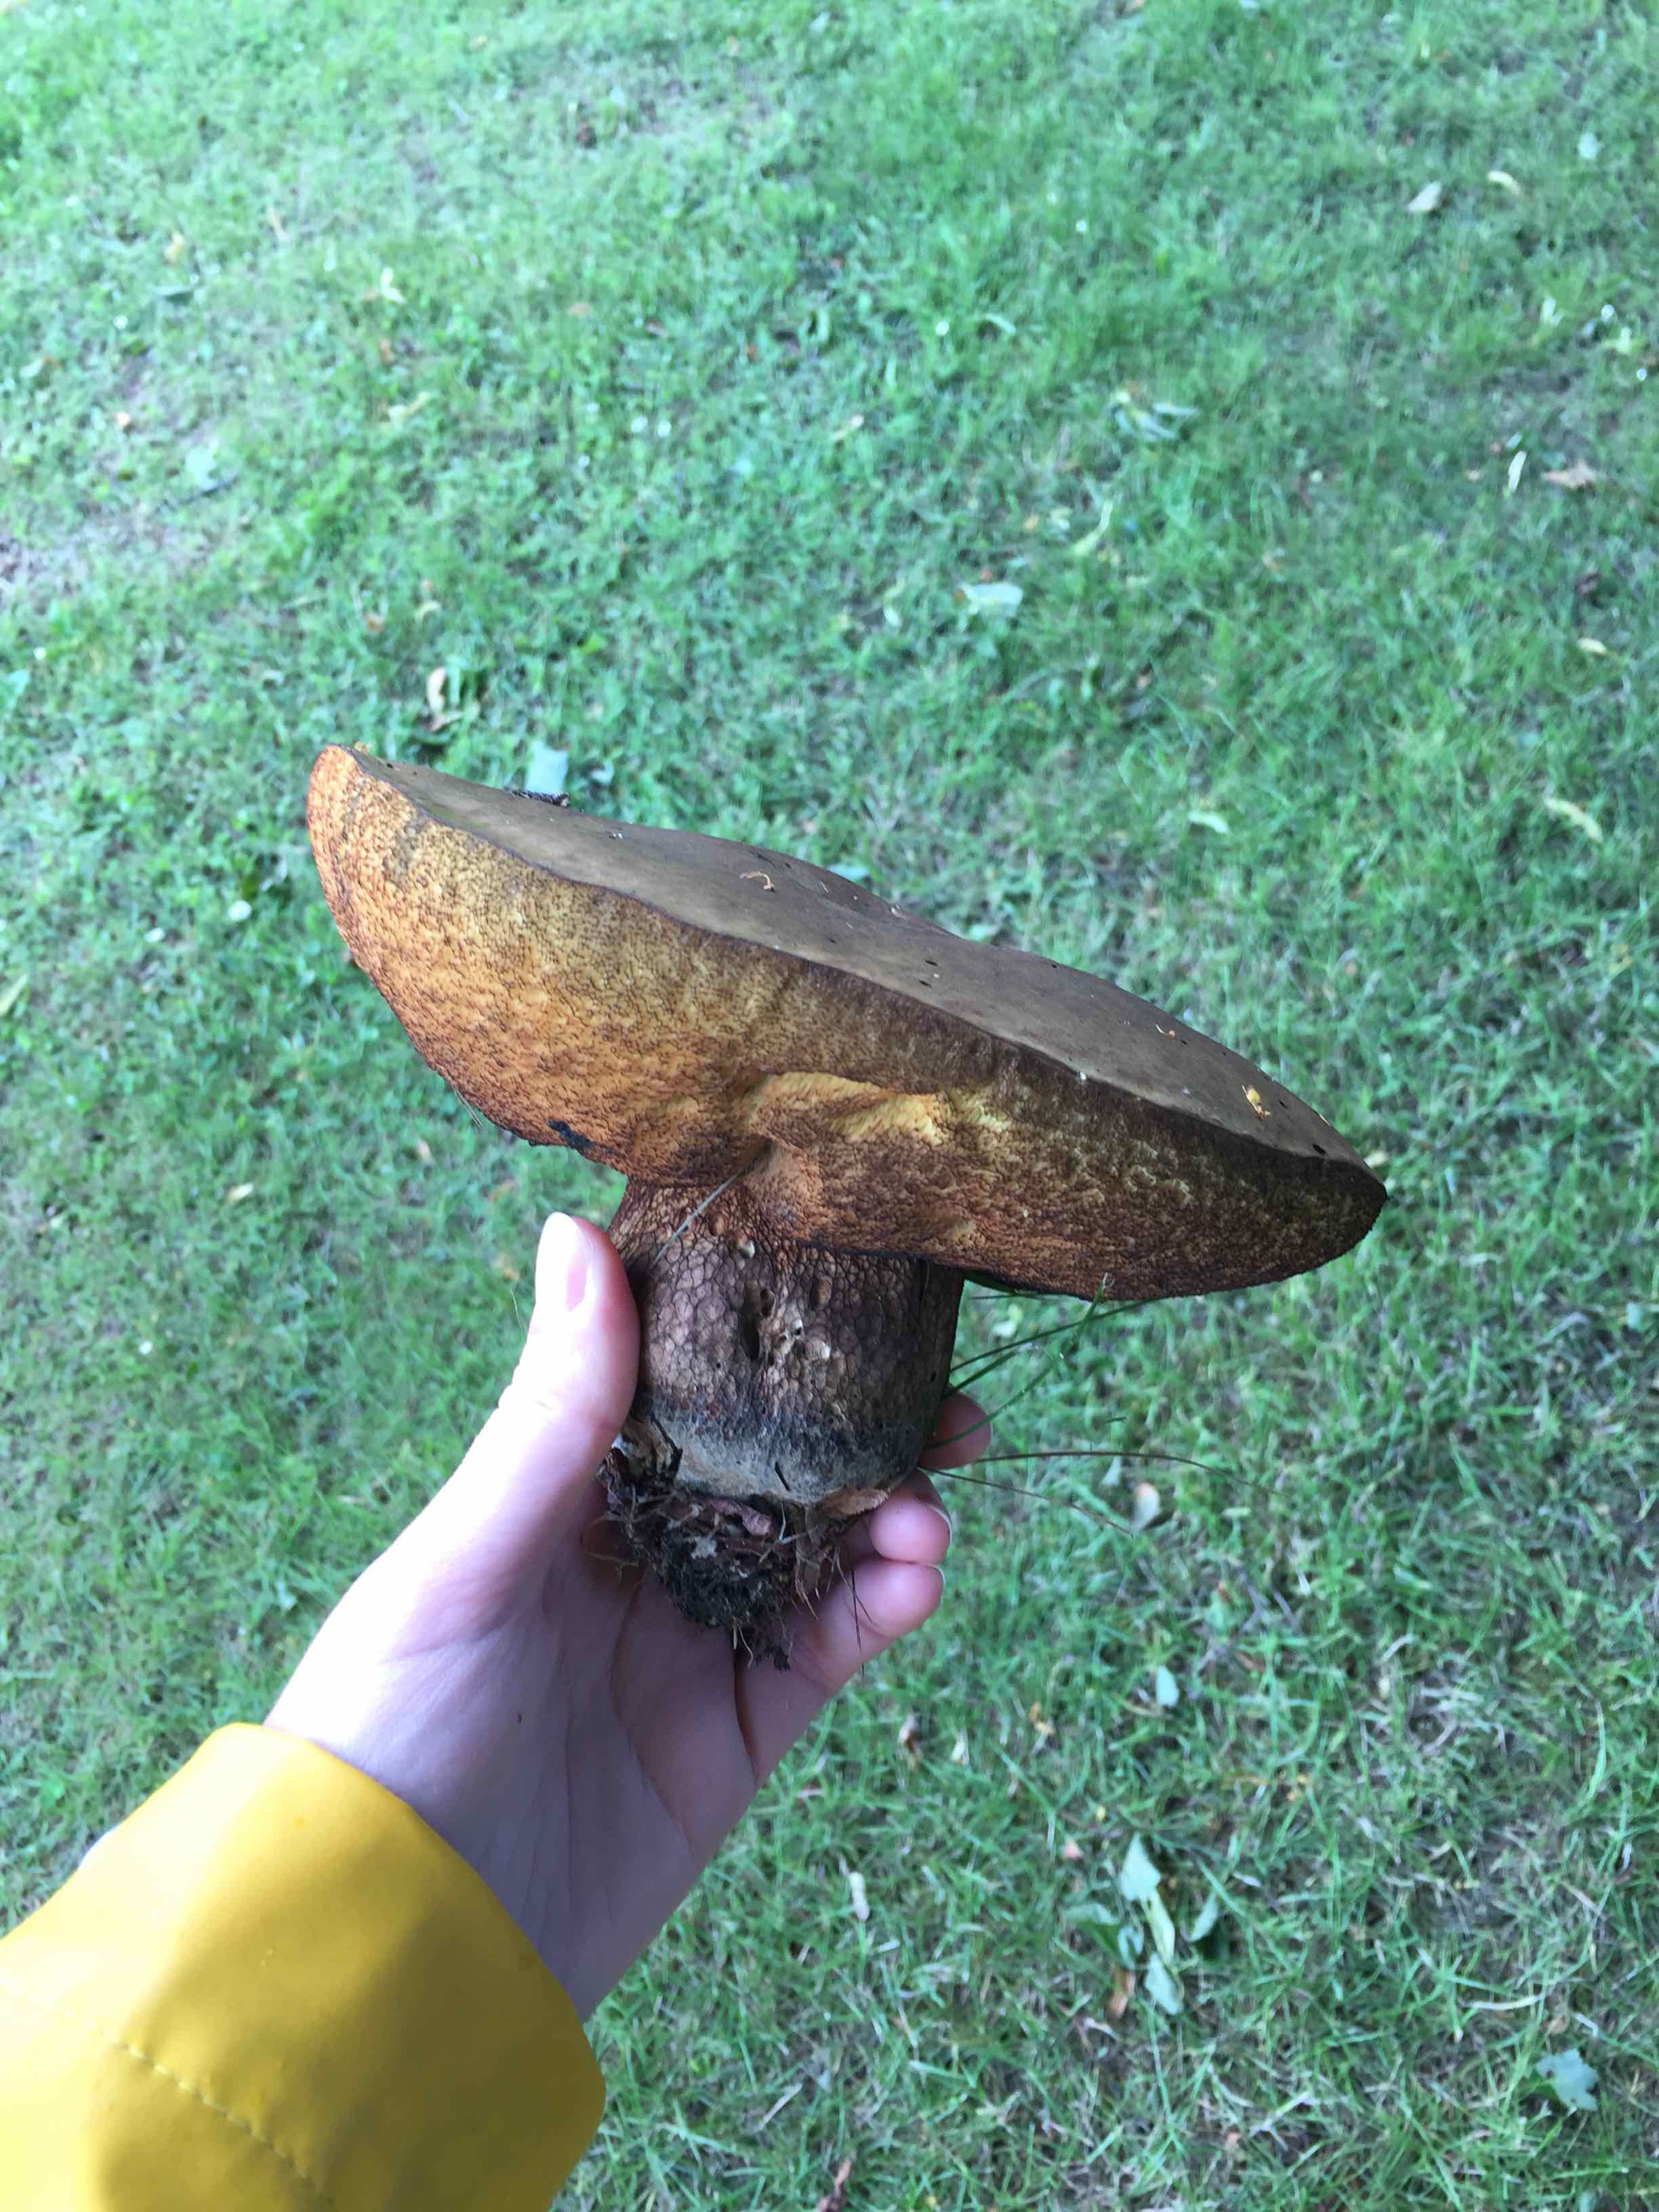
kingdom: Fungi
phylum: Basidiomycota
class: Agaricomycetes
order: Boletales
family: Boletaceae
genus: Suillellus
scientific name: Suillellus luridus
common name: netstokket indigorørhat
